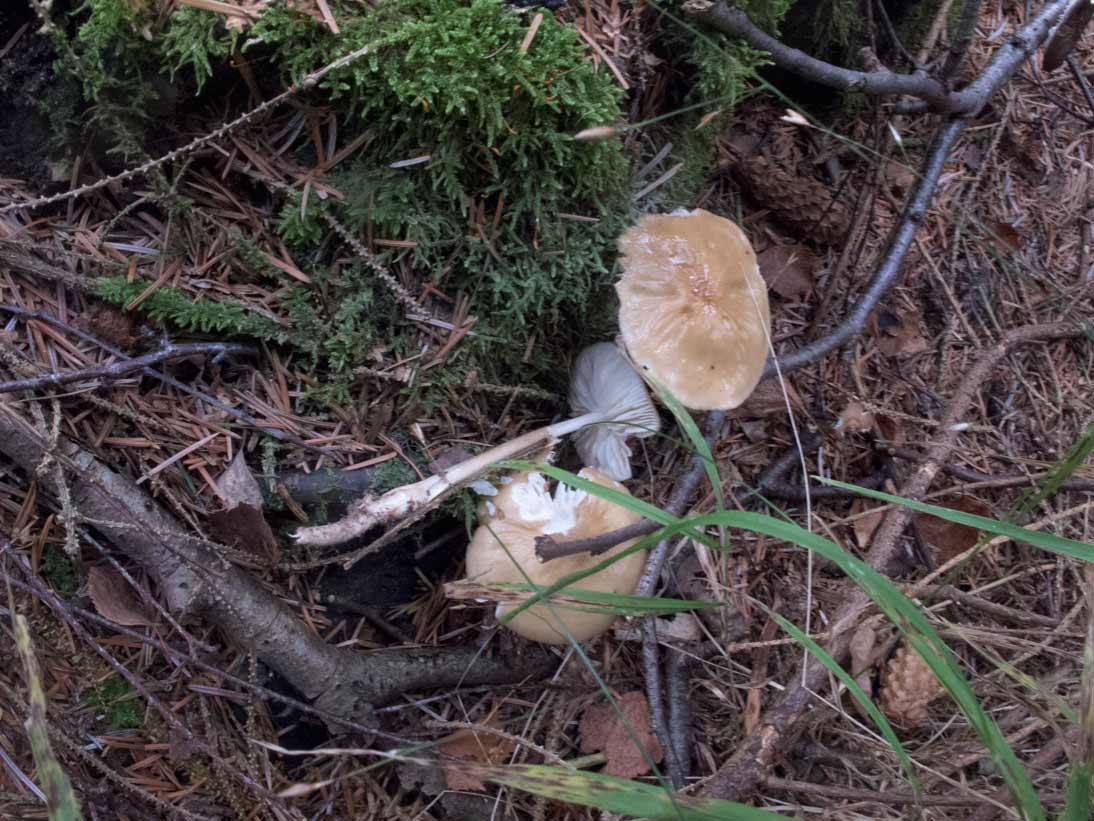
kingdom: Fungi
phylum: Basidiomycota
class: Agaricomycetes
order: Agaricales
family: Physalacriaceae
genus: Hymenopellis
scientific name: Hymenopellis radicata
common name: almindelig pælerodshat
